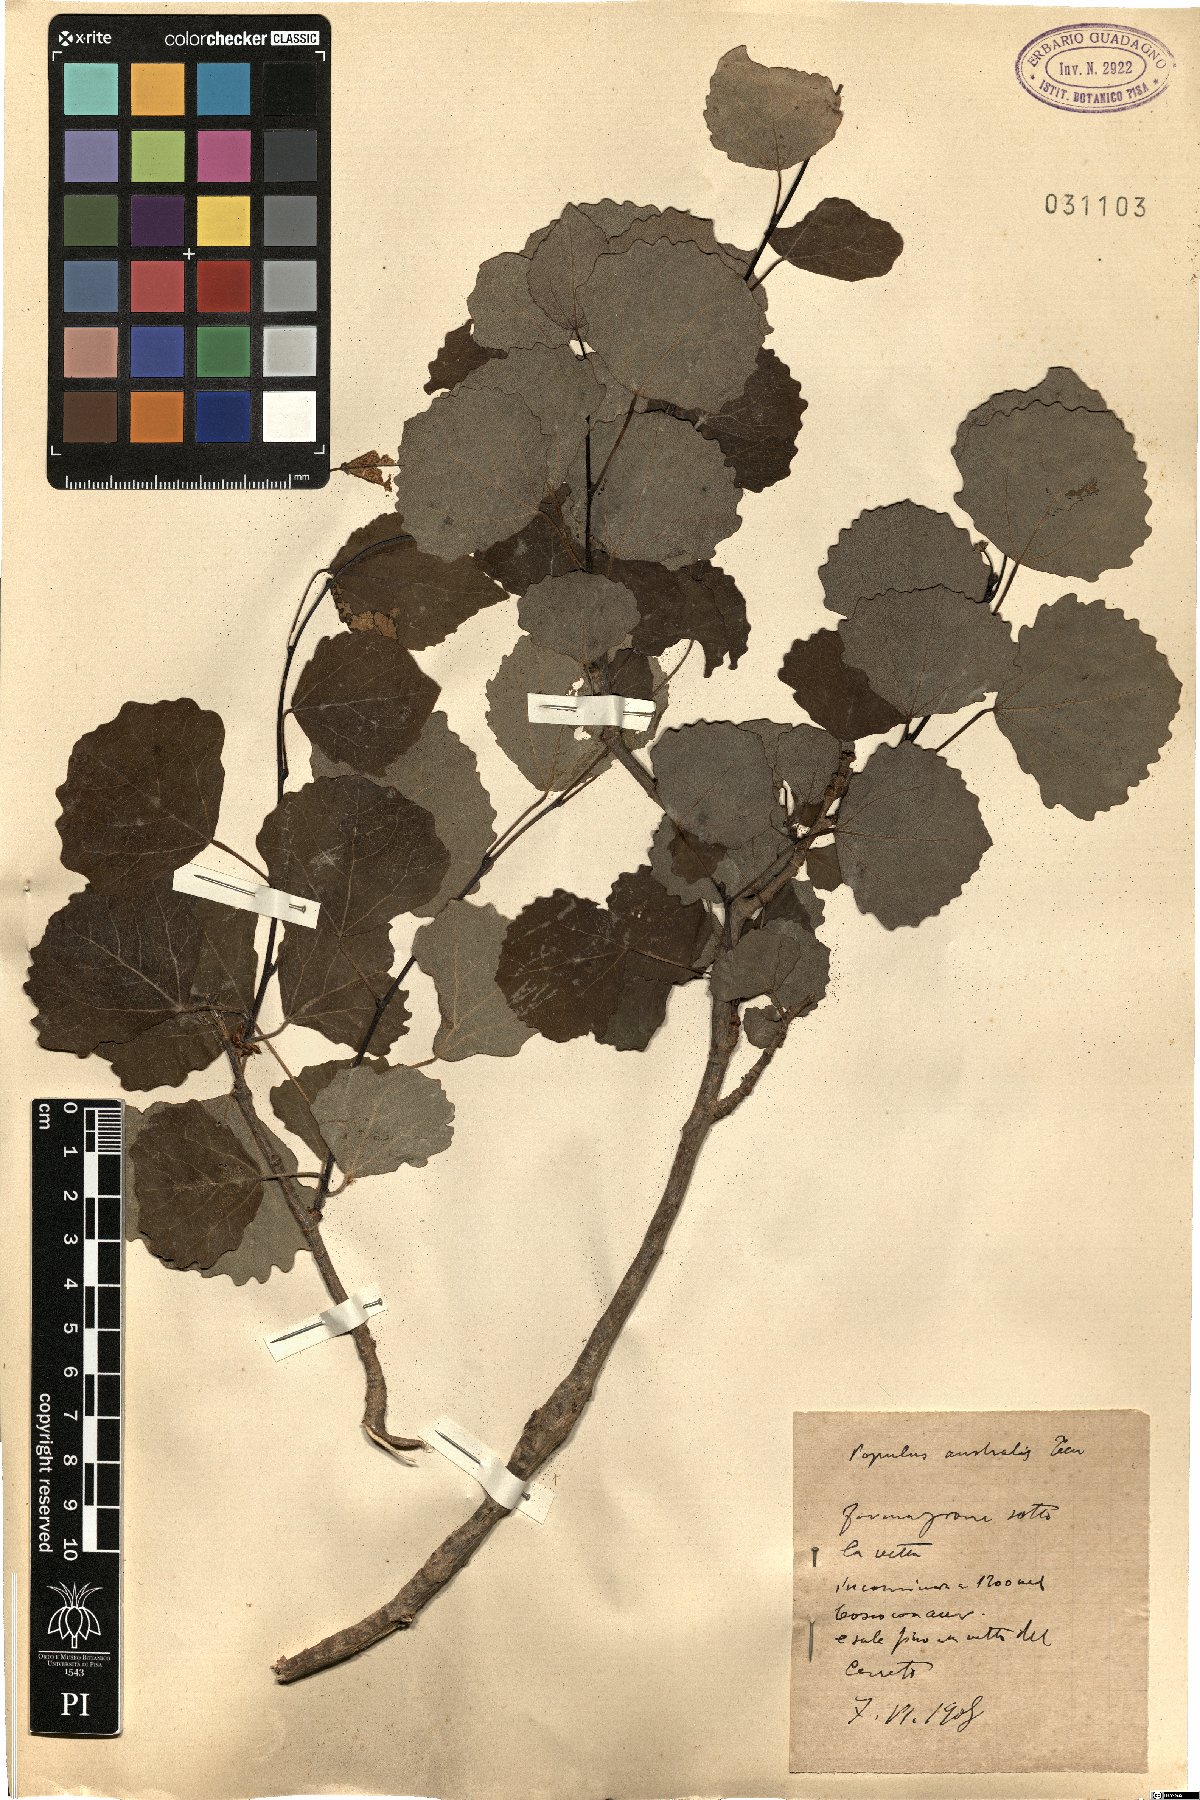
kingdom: Plantae
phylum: Tracheophyta
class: Magnoliopsida
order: Malpighiales
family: Salicaceae
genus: Populus
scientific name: Populus tremula
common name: European aspen
